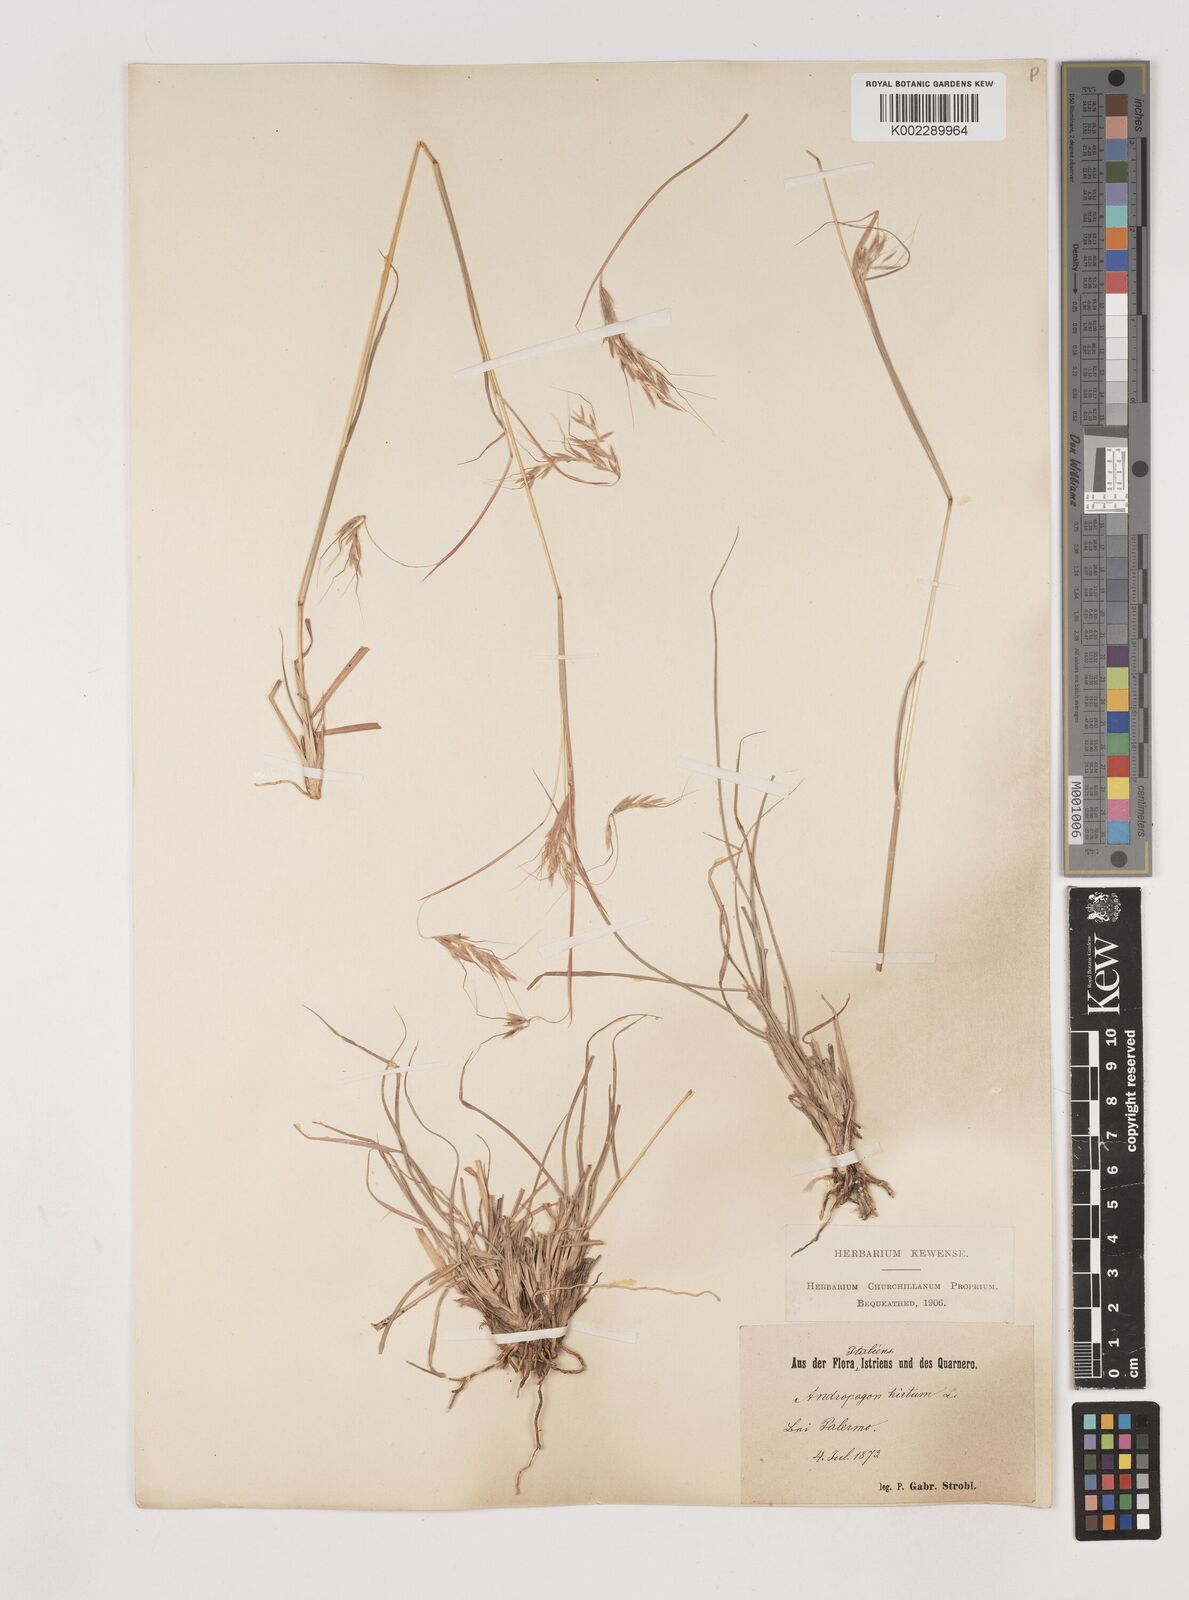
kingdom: Plantae
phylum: Tracheophyta
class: Liliopsida
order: Poales
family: Poaceae
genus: Hyparrhenia
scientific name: Hyparrhenia hirta
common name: Thatching grass
